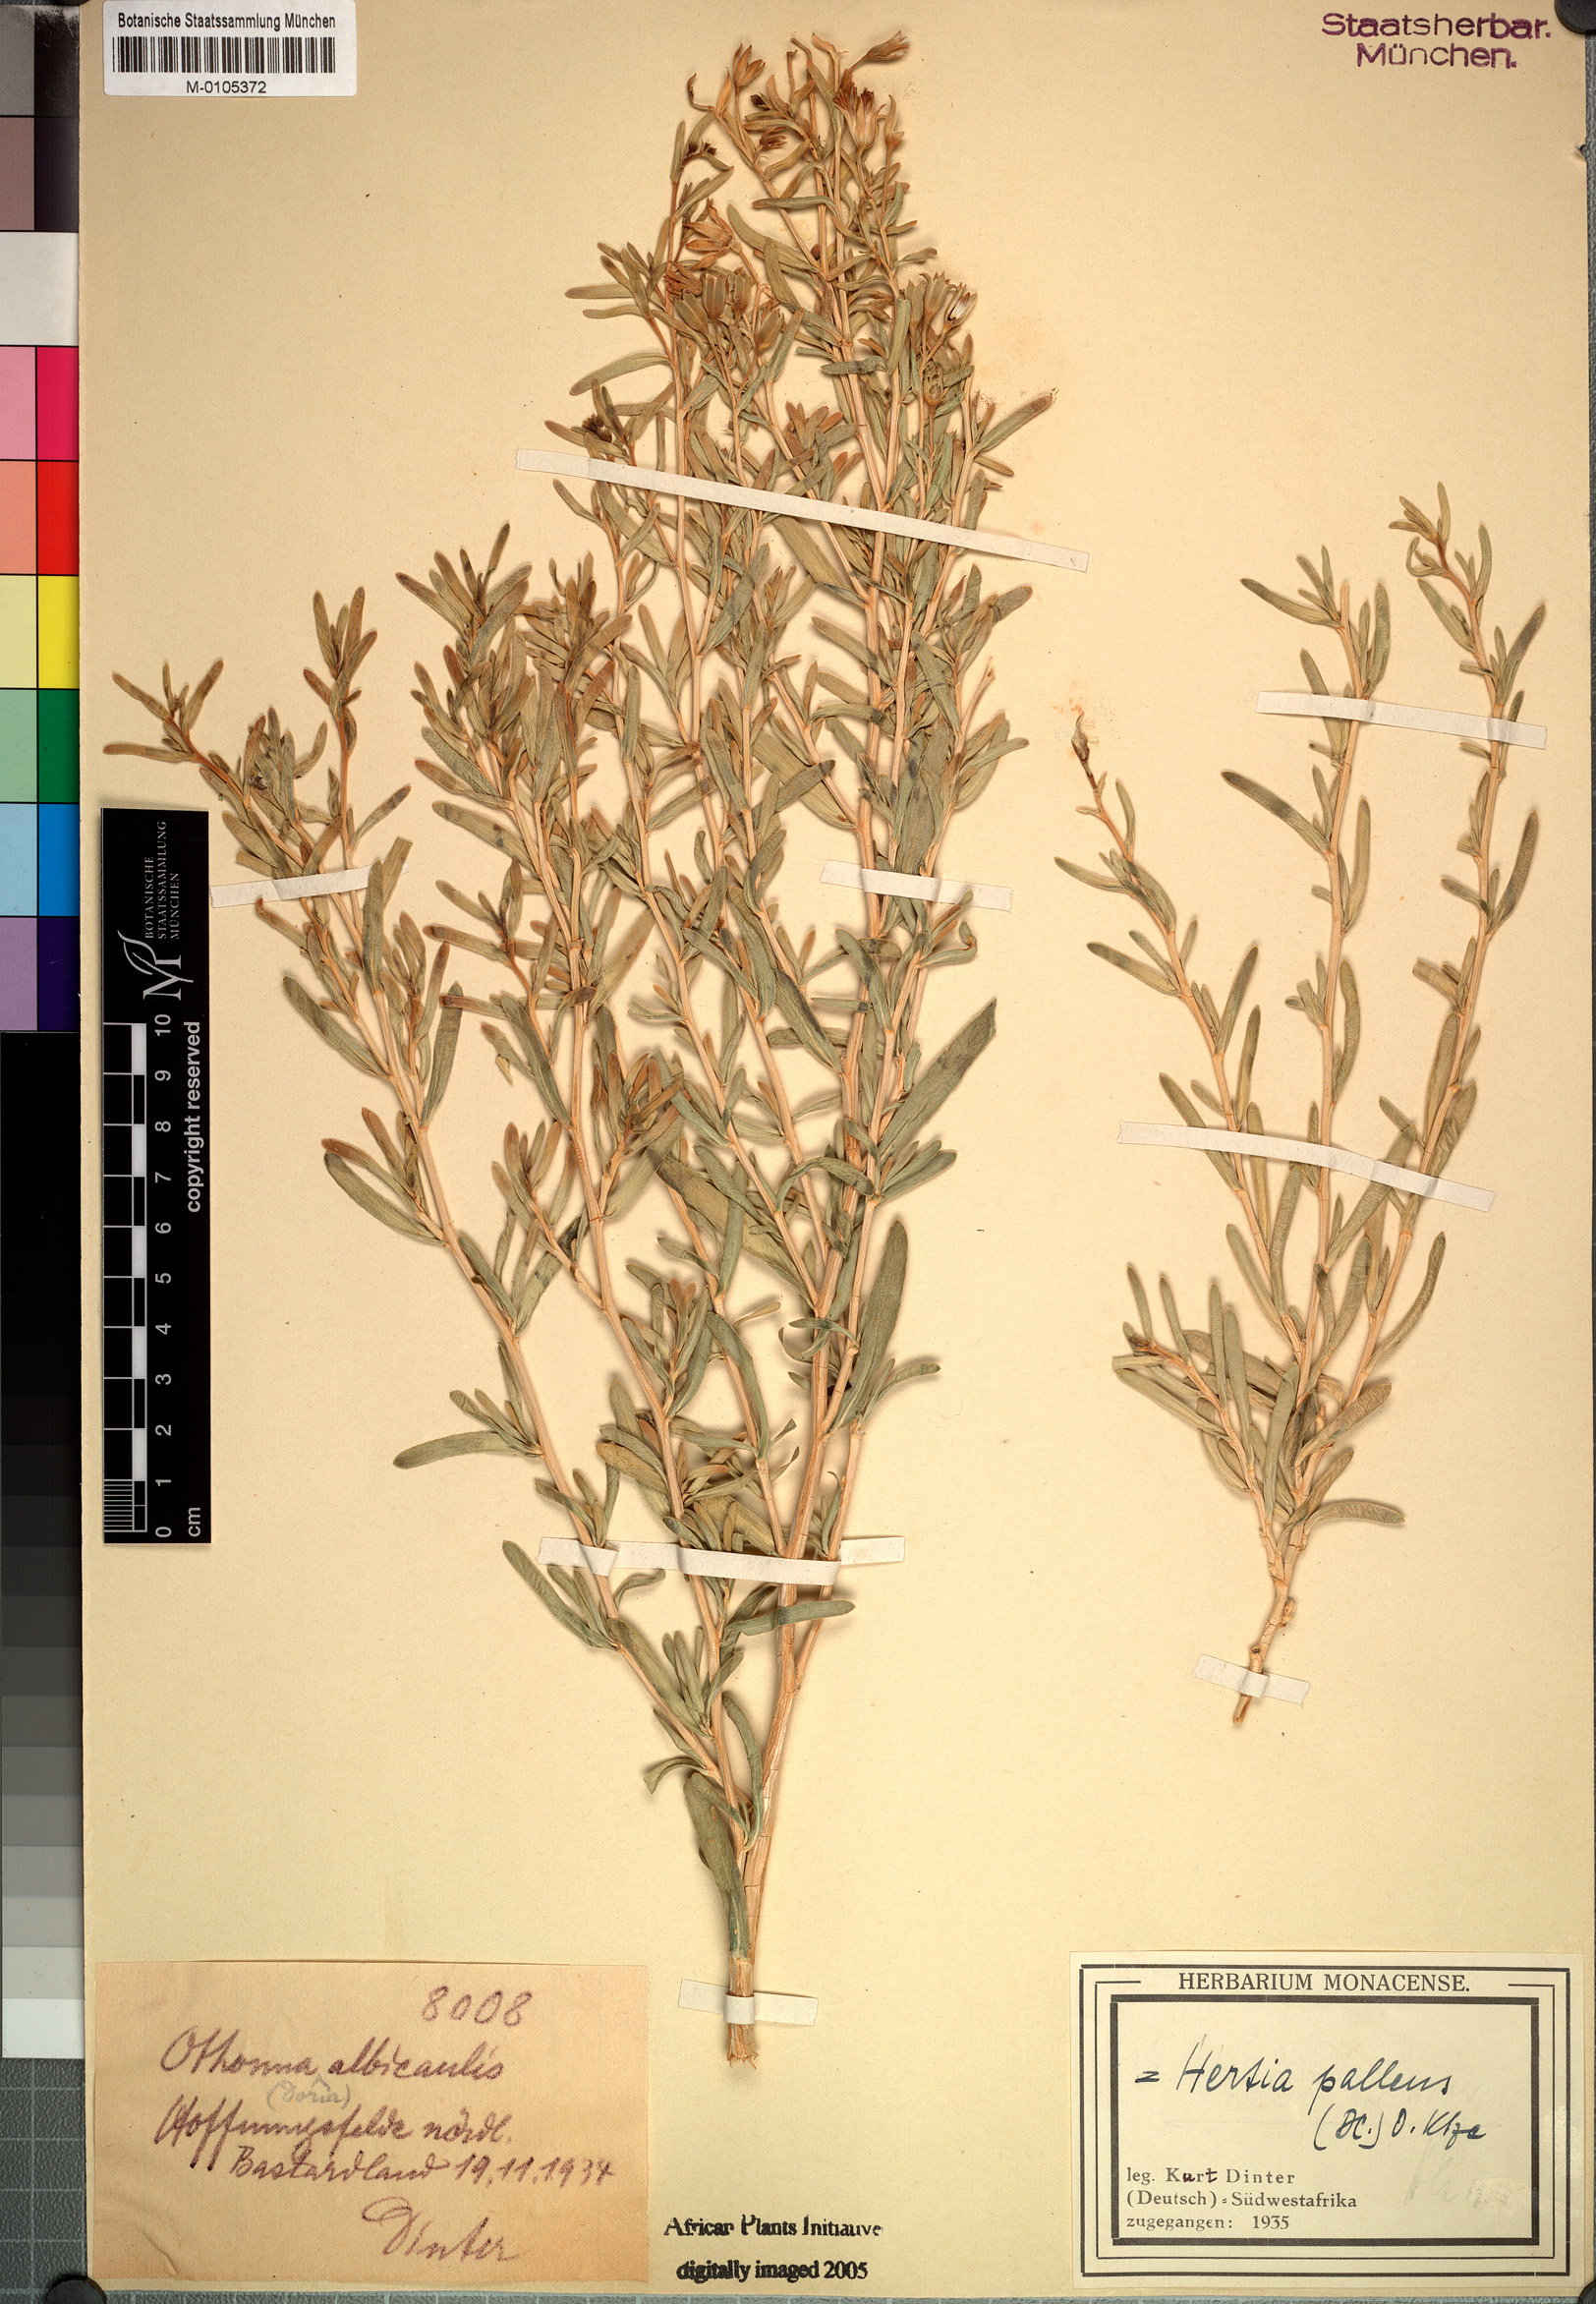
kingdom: Plantae
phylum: Tracheophyta
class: Magnoliopsida
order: Asterales
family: Asteraceae
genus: Hertia
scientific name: Hertia pallens
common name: Springbokbush
